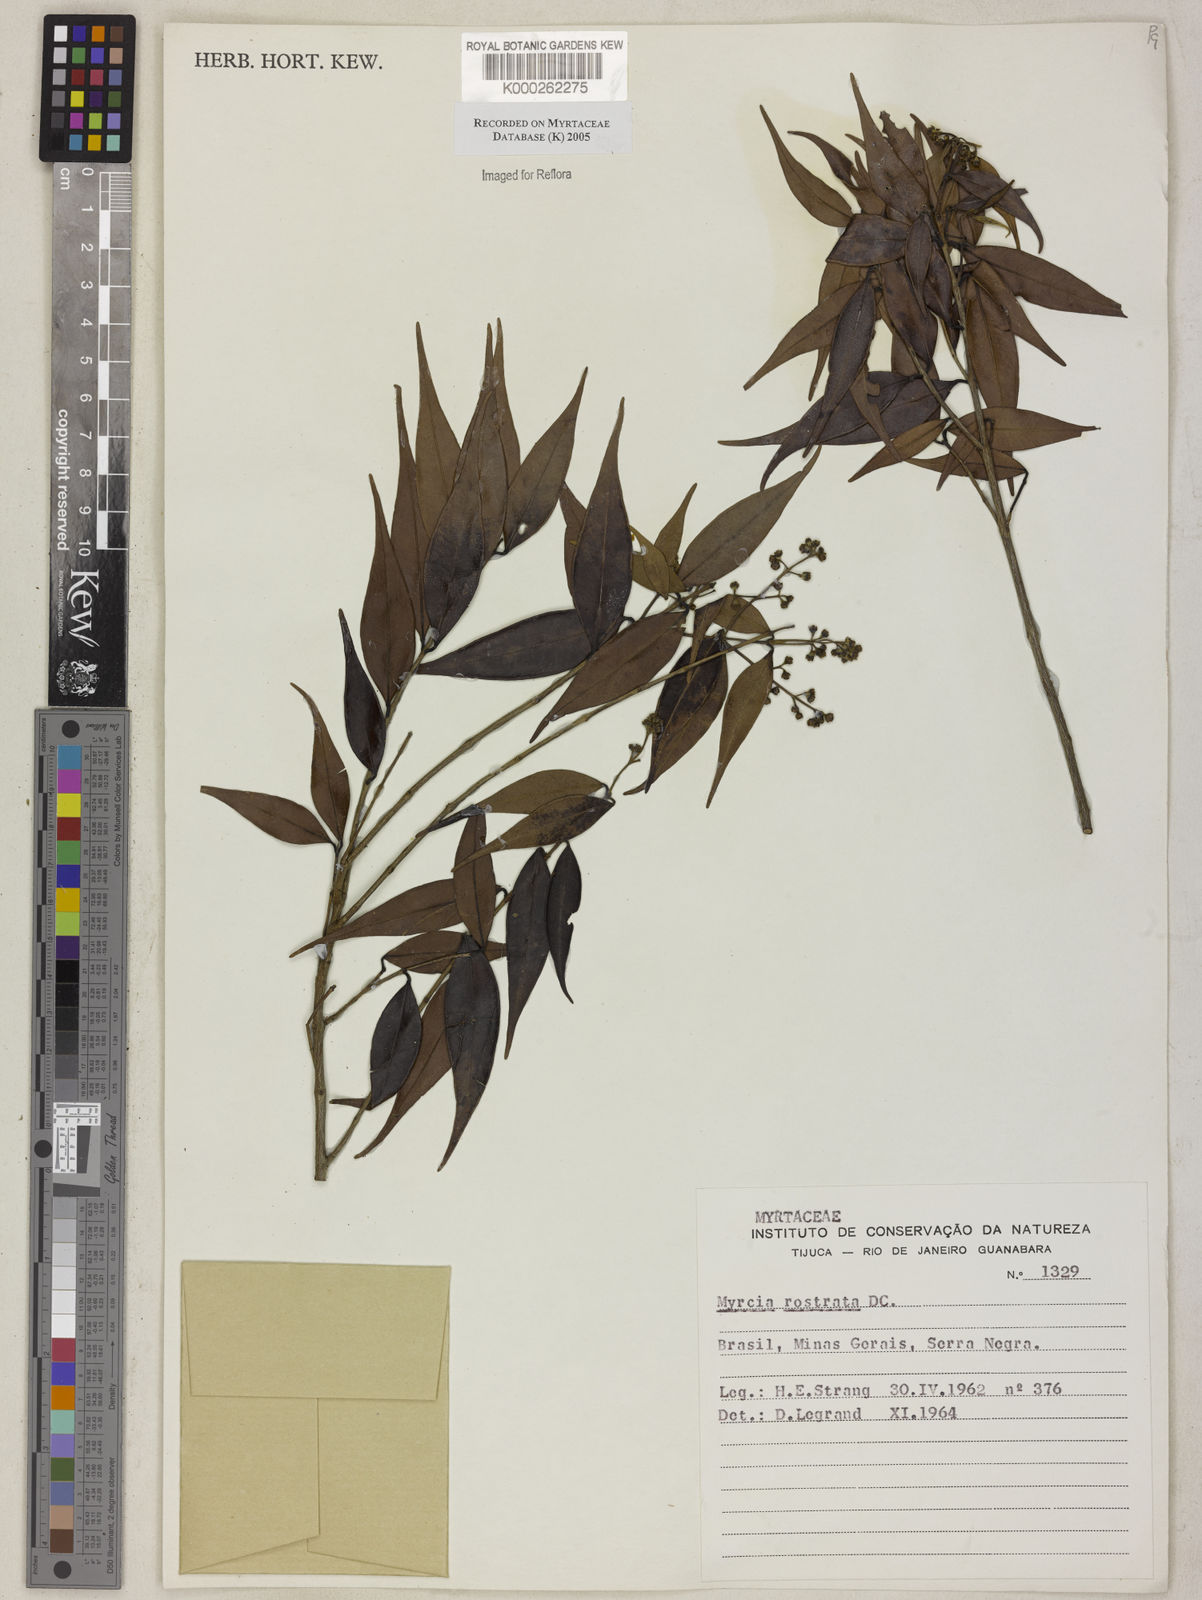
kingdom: Plantae
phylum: Tracheophyta
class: Magnoliopsida
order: Myrtales
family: Myrtaceae
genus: Myrcia
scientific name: Myrcia splendens
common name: Surinam cherry
